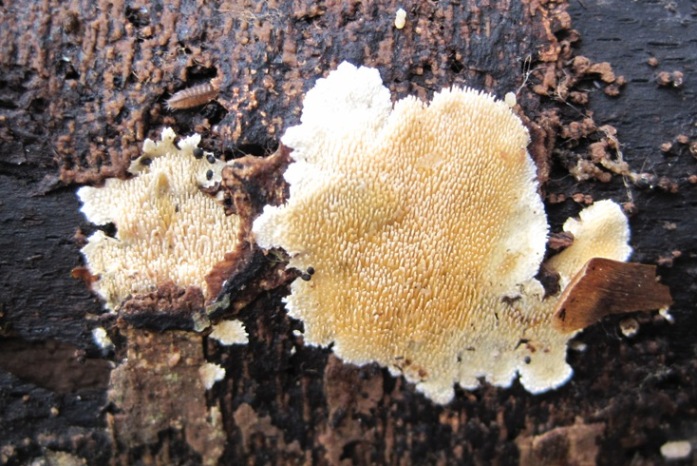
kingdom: Fungi
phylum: Basidiomycota
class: Agaricomycetes
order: Polyporales
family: Steccherinaceae
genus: Steccherinum
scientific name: Steccherinum ochraceum
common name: almindelig skønpig
